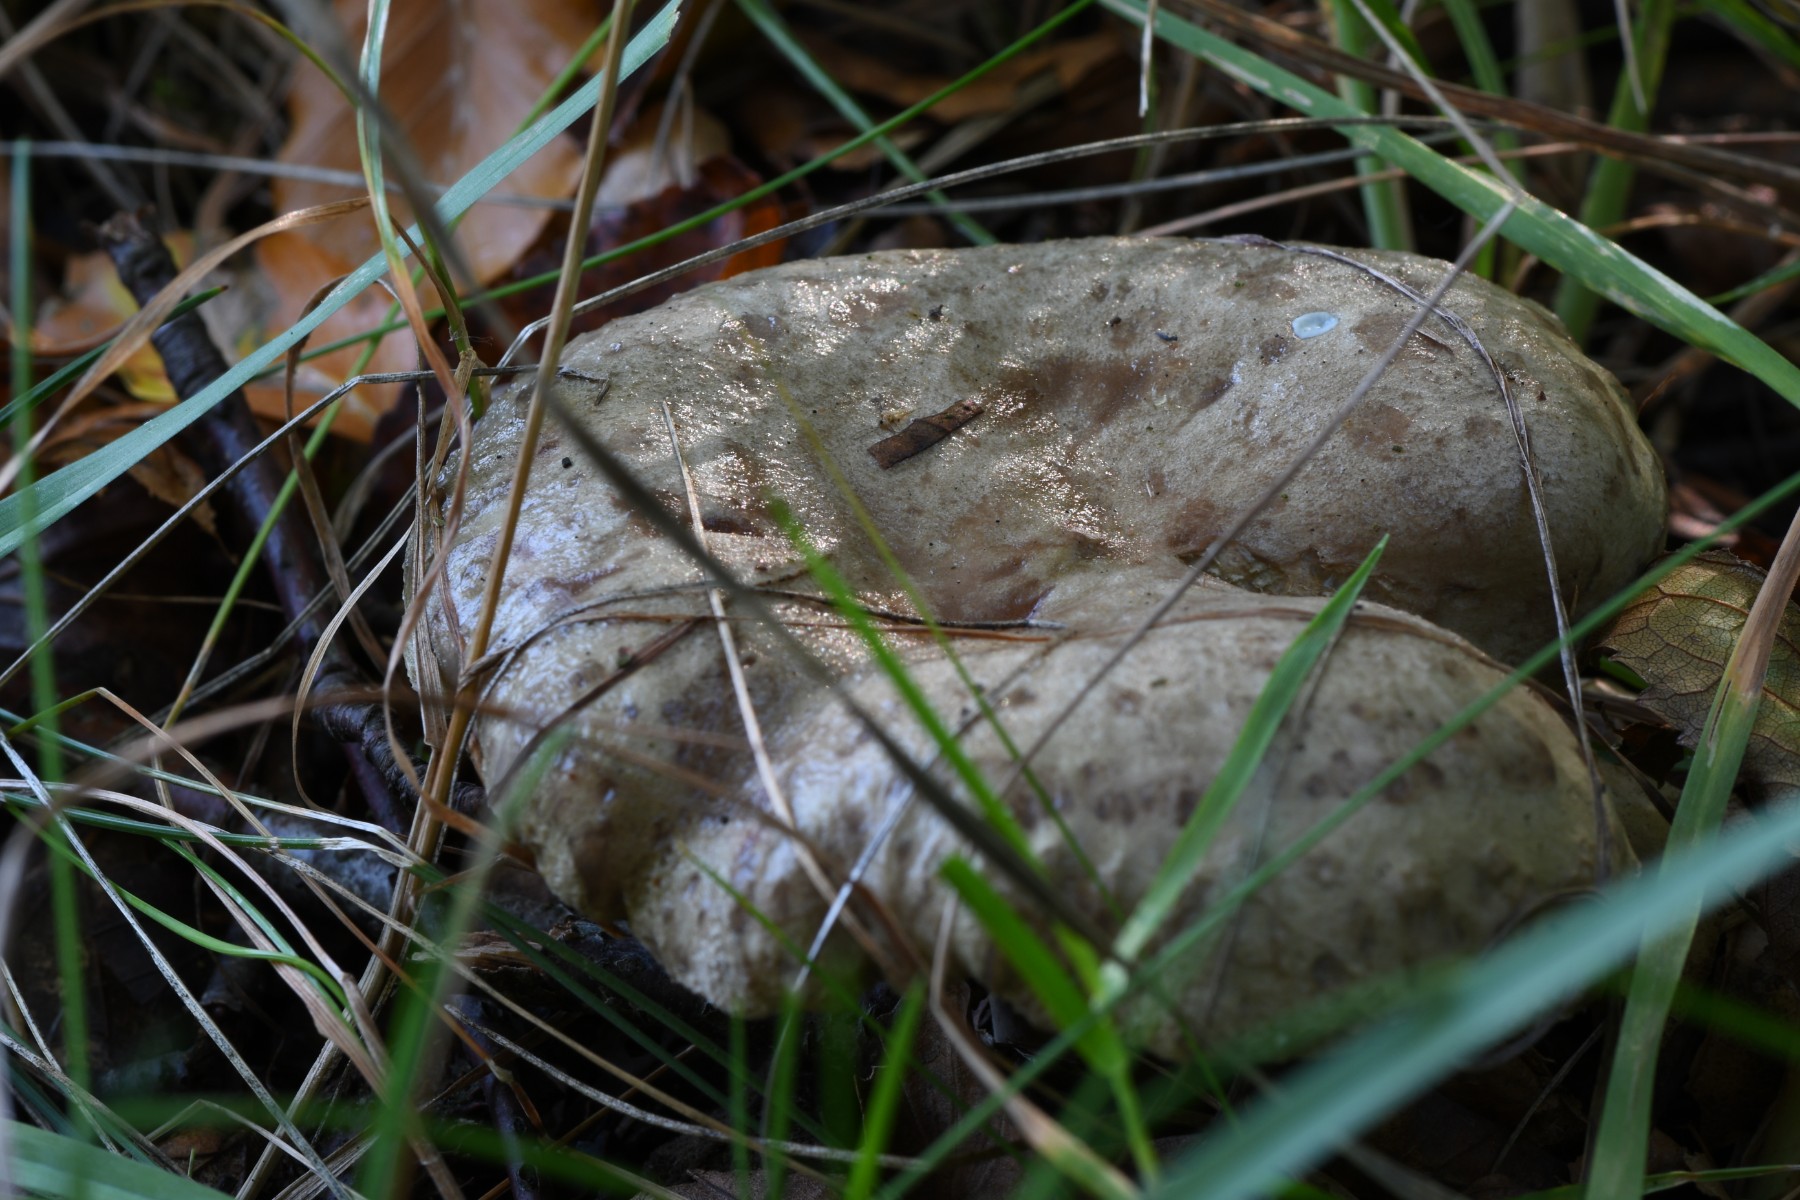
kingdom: Fungi
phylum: Basidiomycota
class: Agaricomycetes
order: Russulales
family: Russulaceae
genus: Lactarius
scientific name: Lactarius blennius
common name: dråbeplettet mælkehat
